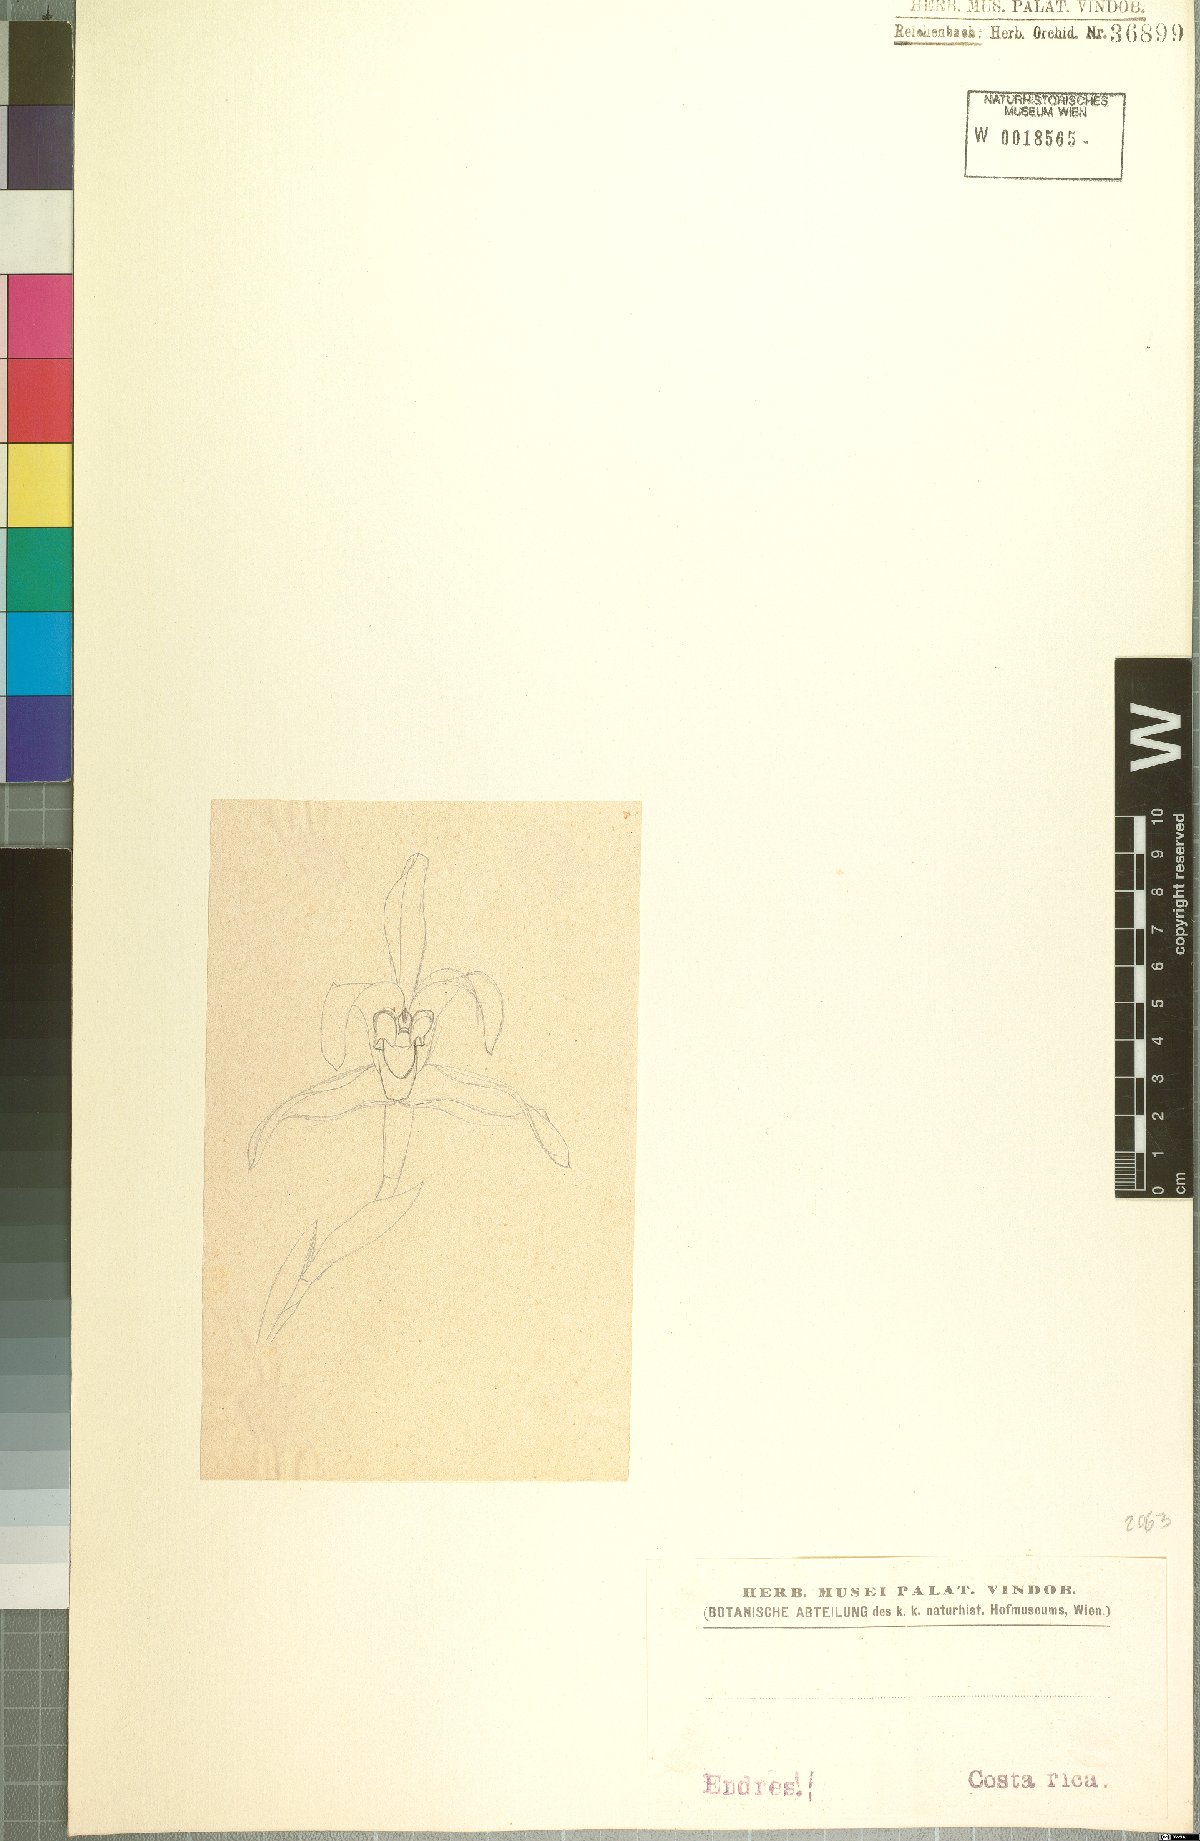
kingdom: Plantae
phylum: Tracheophyta
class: Liliopsida
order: Asparagales
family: Orchidaceae
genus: Maxillaria
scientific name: Maxillaria
